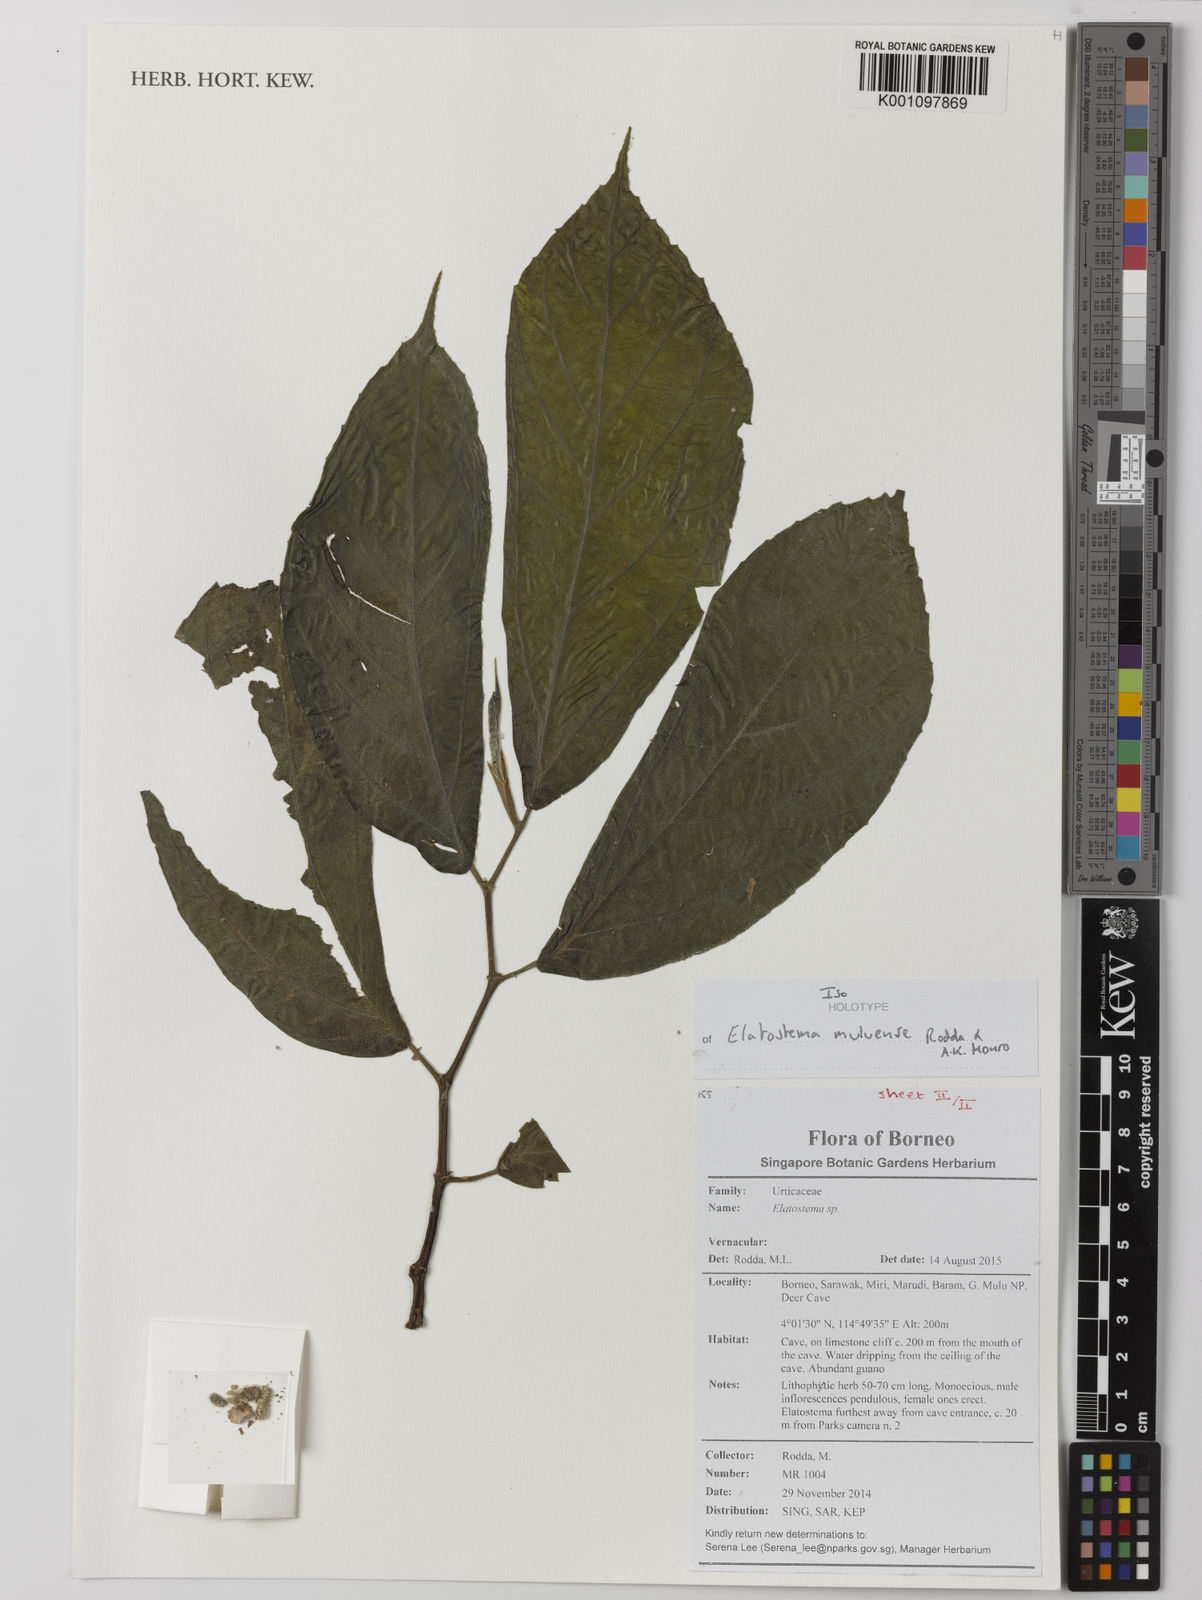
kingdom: Plantae
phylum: Tracheophyta
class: Magnoliopsida
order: Rosales
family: Urticaceae
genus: Elatostema
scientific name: Elatostema muluense
